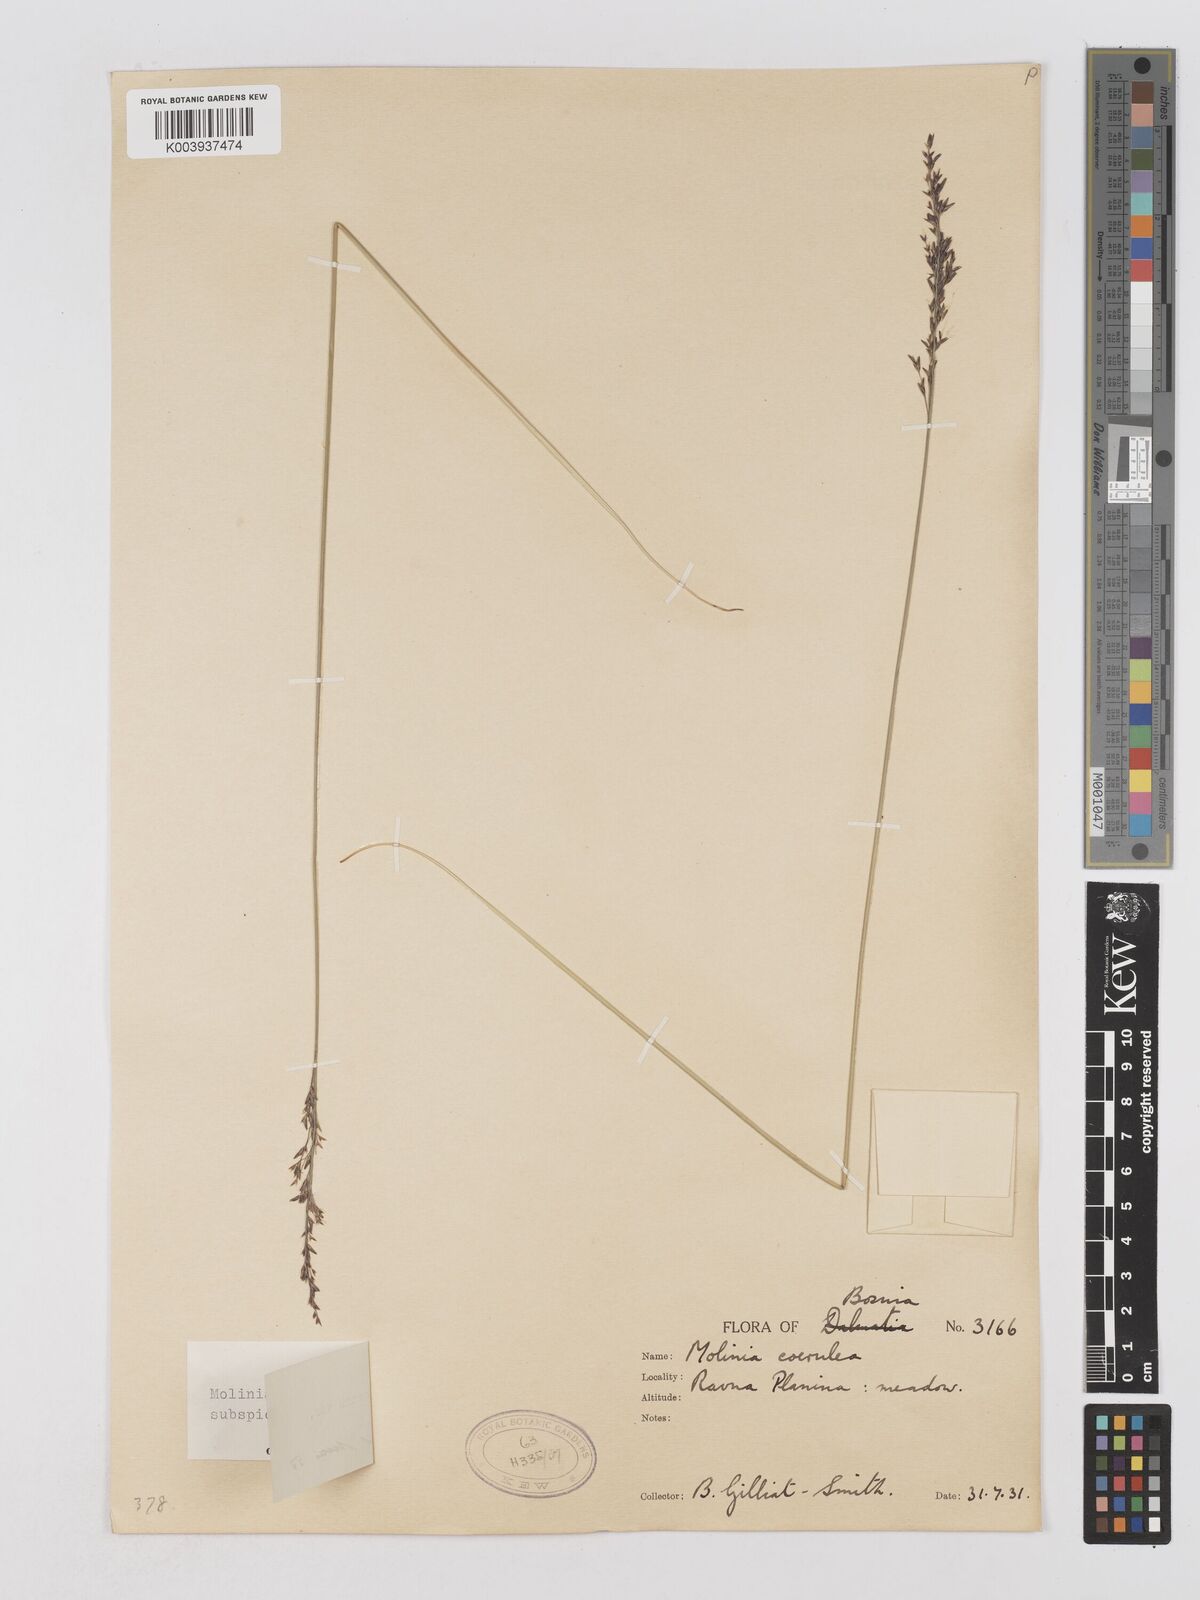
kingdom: Plantae
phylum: Tracheophyta
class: Liliopsida
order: Poales
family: Poaceae
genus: Molinia
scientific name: Molinia caerulea
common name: Purple moor-grass
